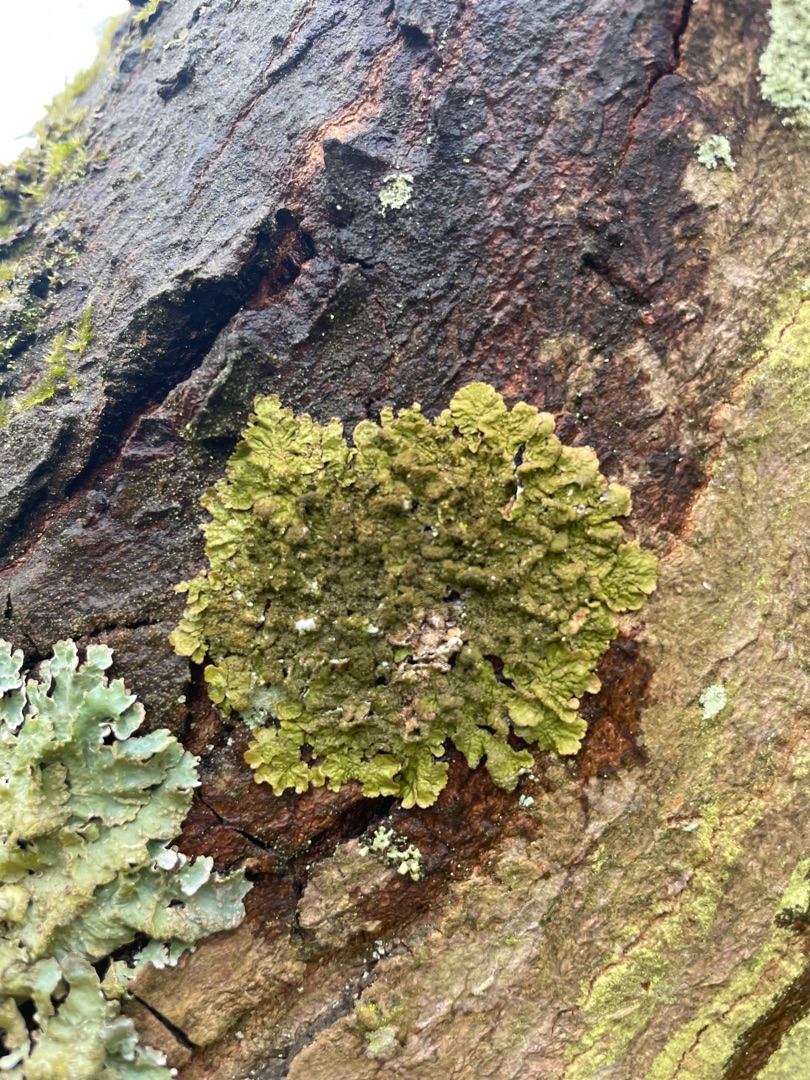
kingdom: Fungi
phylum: Ascomycota
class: Lecanoromycetes
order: Lecanorales
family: Parmeliaceae
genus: Melanelixia
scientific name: Melanelixia glabratula
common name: Glinsende skållav
